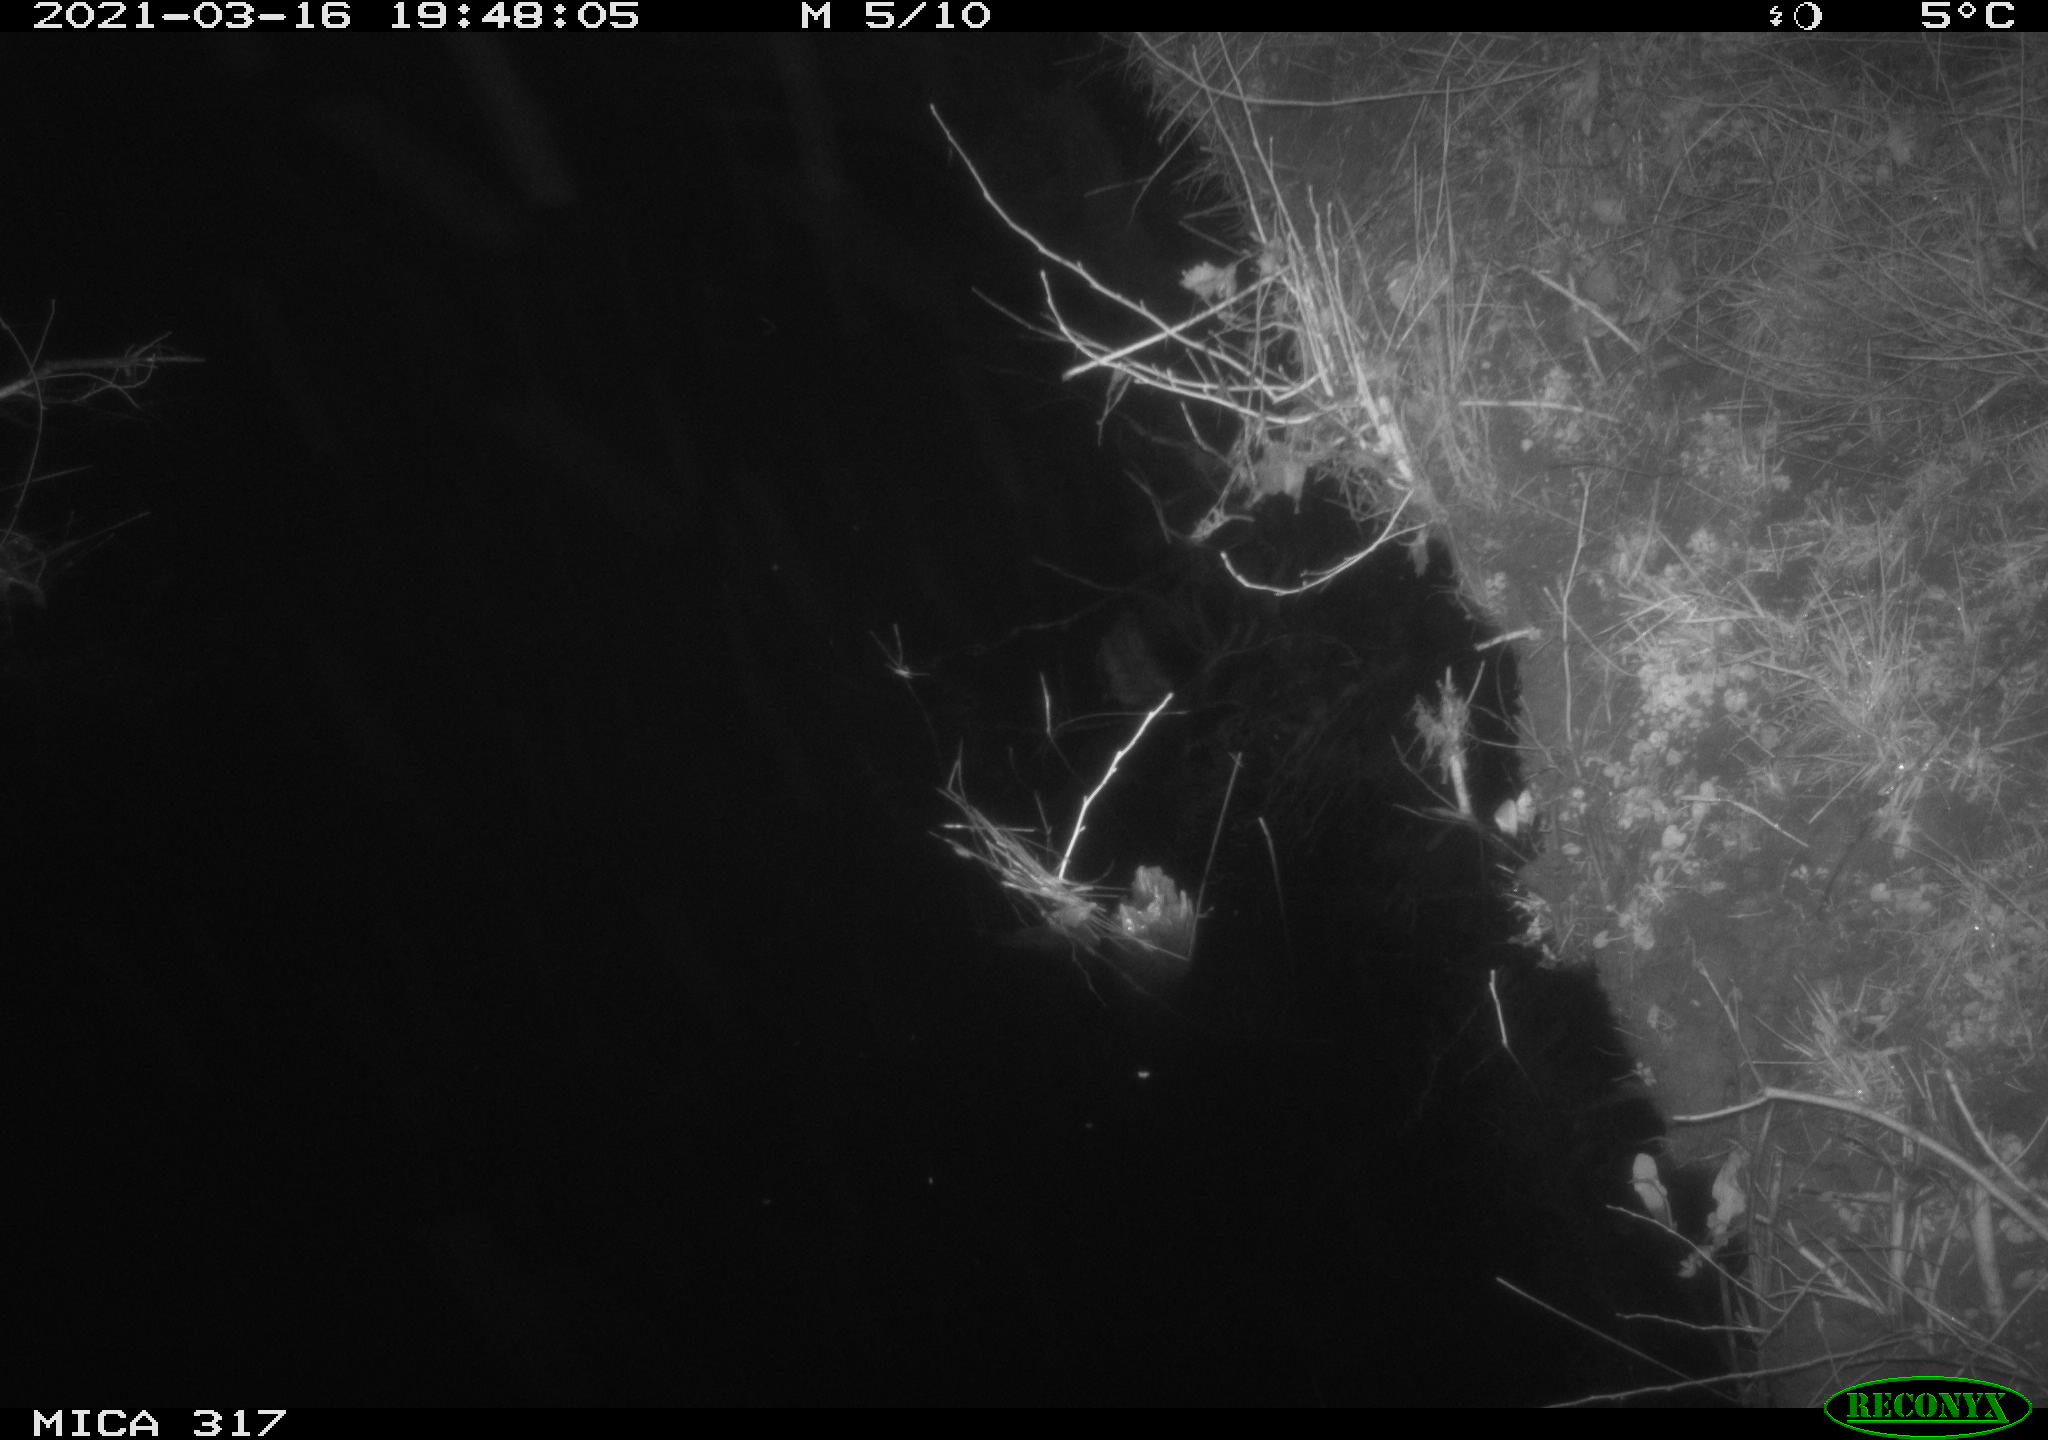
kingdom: Animalia
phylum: Chordata
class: Aves
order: Anseriformes
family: Anatidae
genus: Anas
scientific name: Anas platyrhynchos
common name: Mallard
